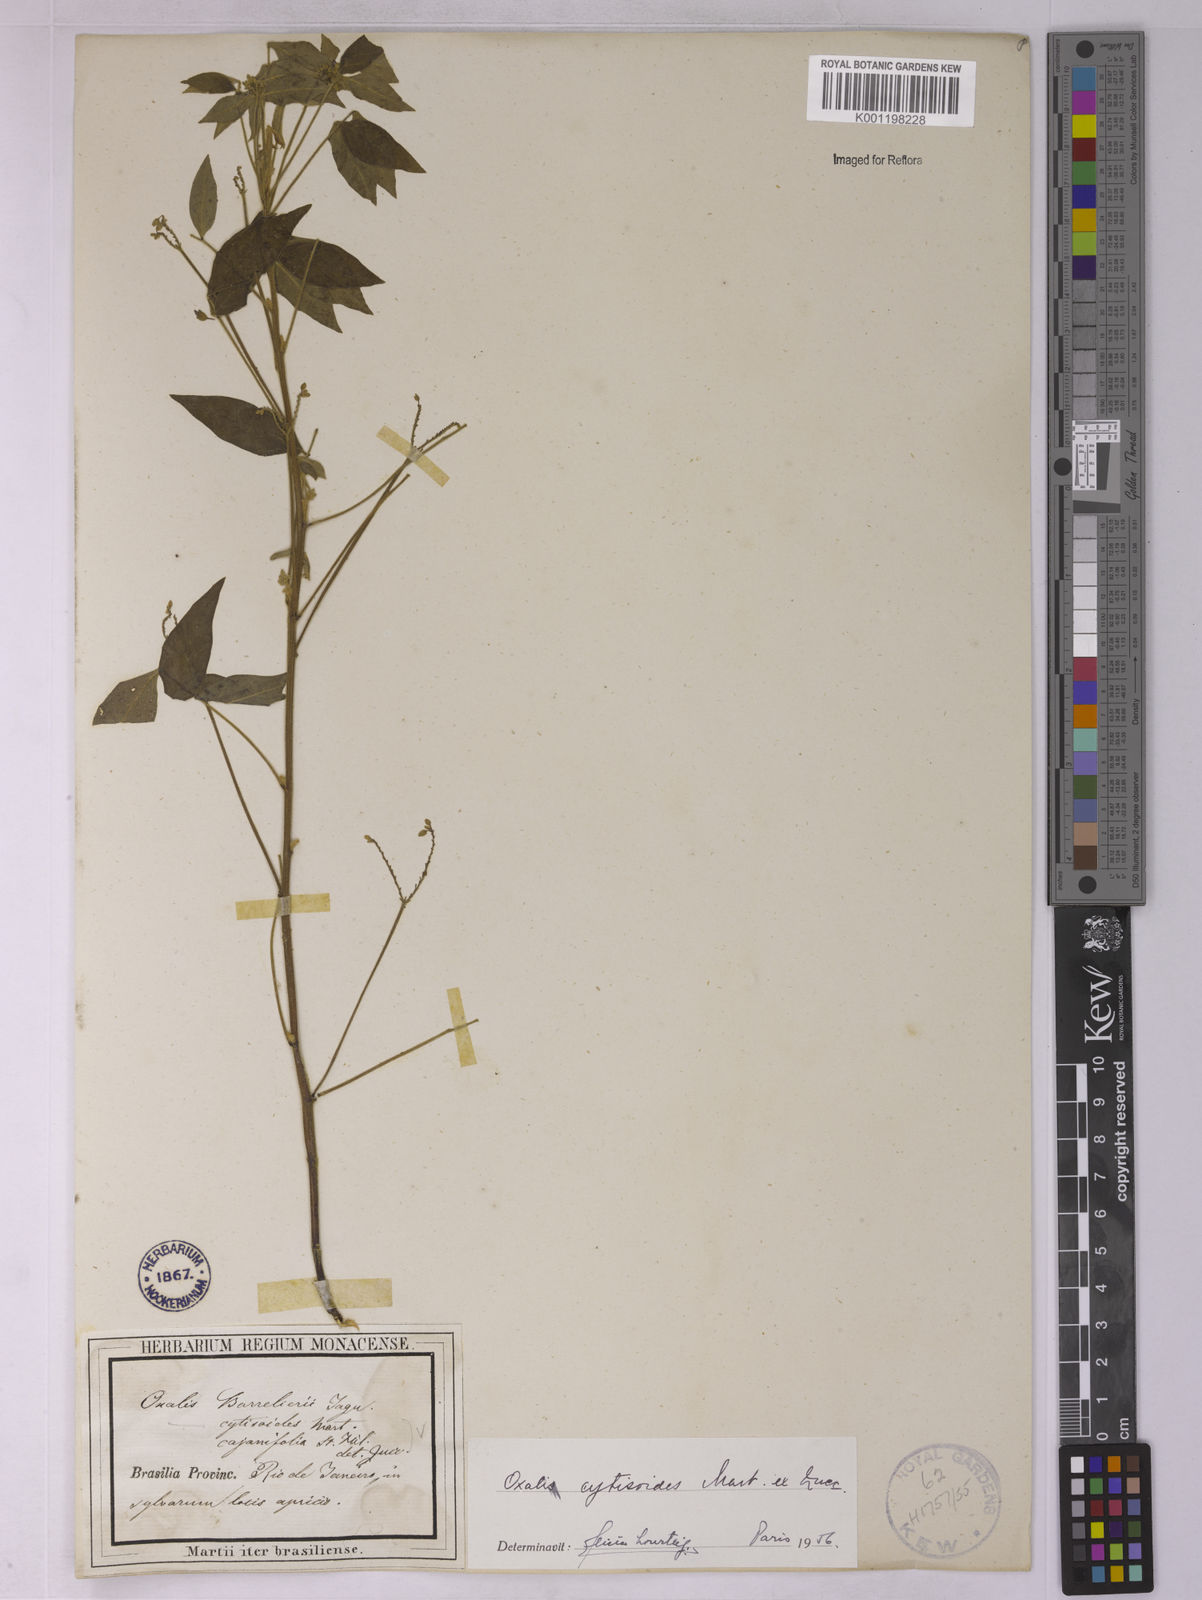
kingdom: Plantae
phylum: Tracheophyta
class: Magnoliopsida
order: Oxalidales
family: Oxalidaceae
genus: Oxalis
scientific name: Oxalis cytisoides
